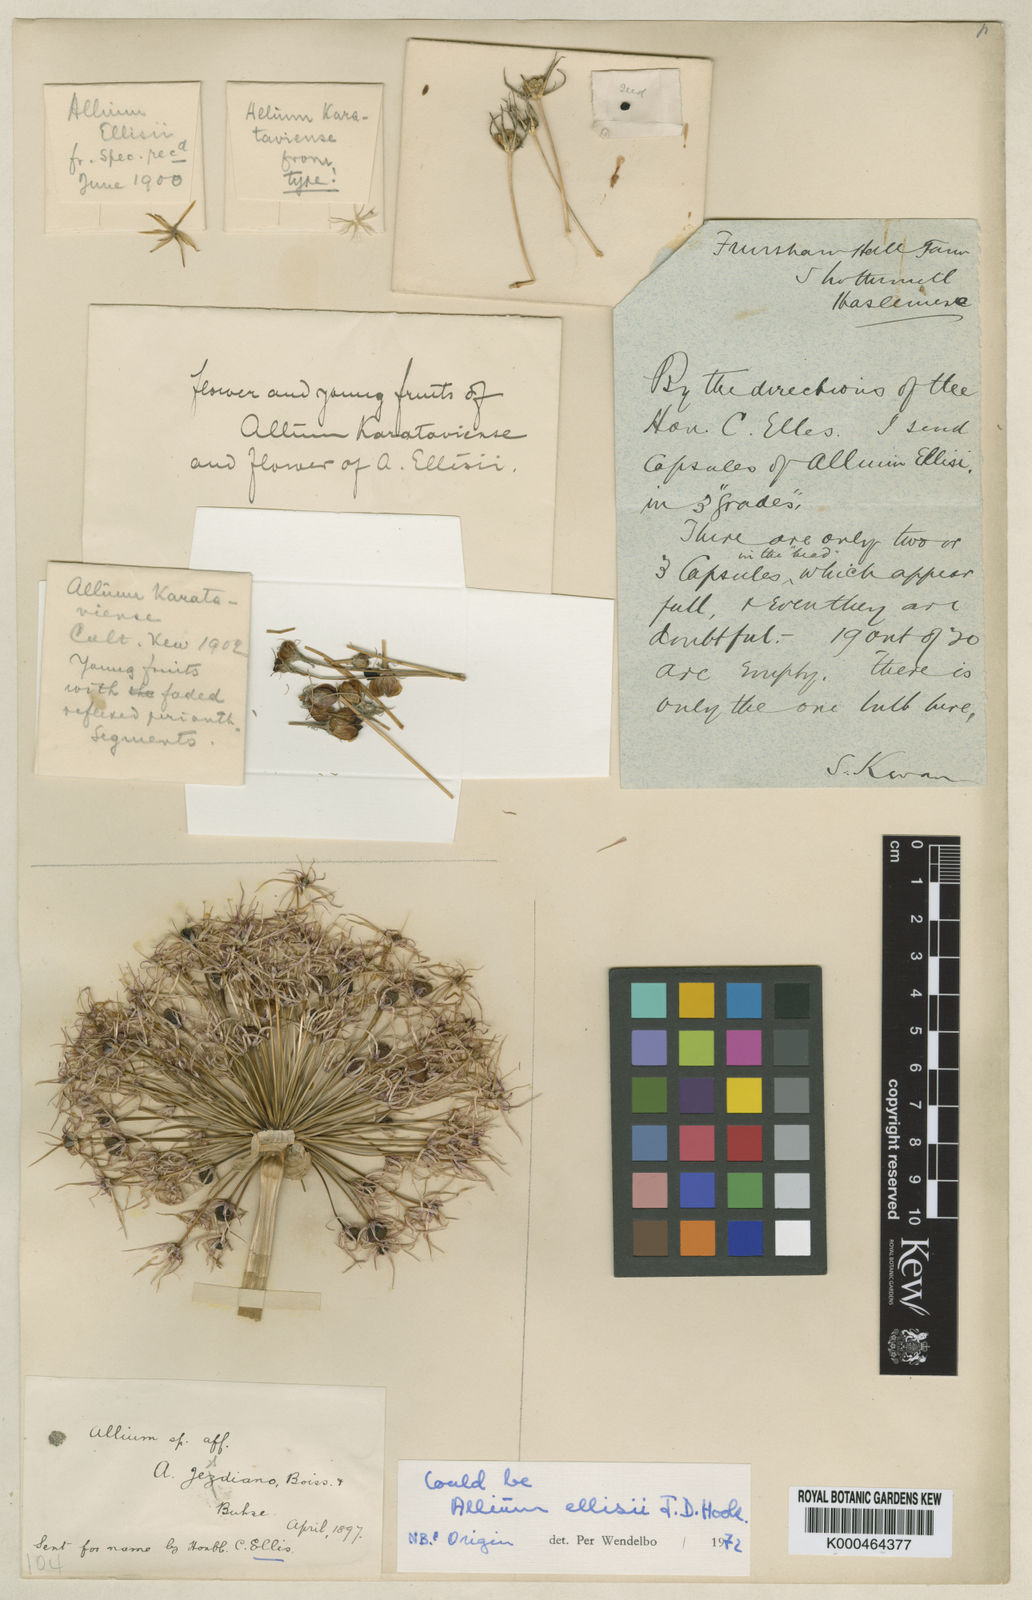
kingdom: Plantae
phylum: Tracheophyta
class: Liliopsida
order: Asparagales
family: Amaryllidaceae
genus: Allium
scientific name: Allium ellisii
